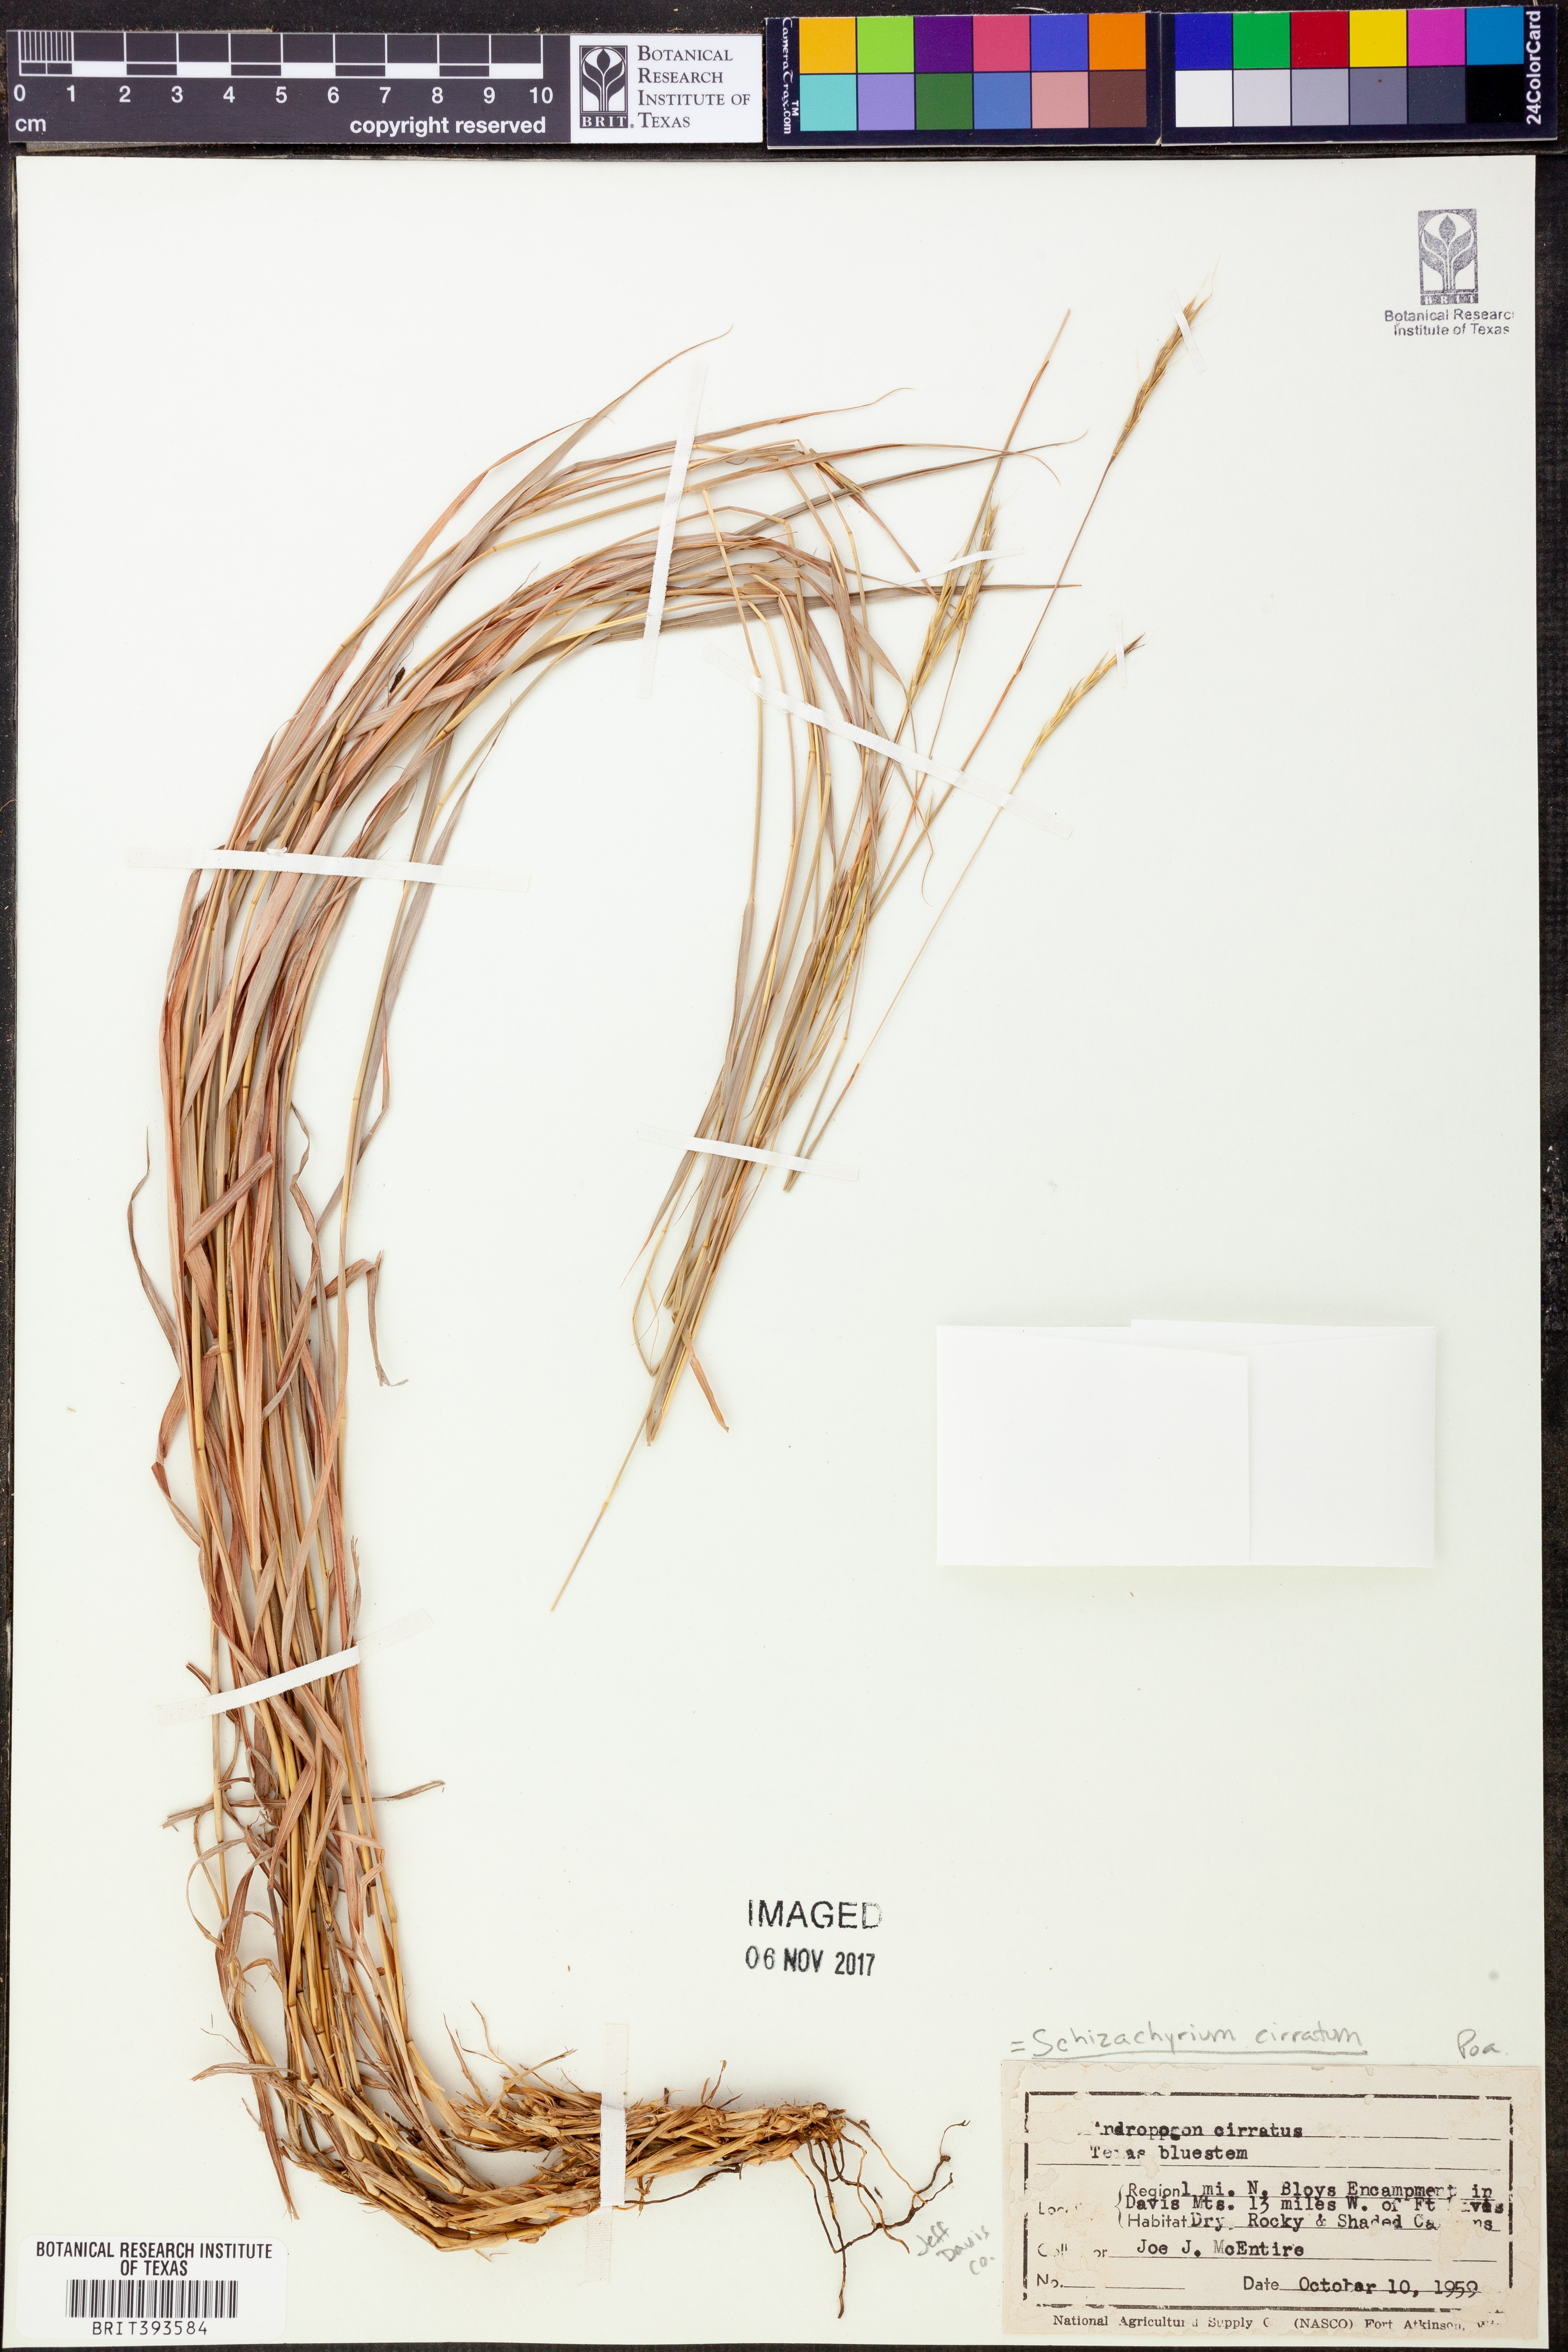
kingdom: Plantae
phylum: Tracheophyta
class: Liliopsida
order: Poales
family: Poaceae
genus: Andropogon
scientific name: Andropogon cirratus
